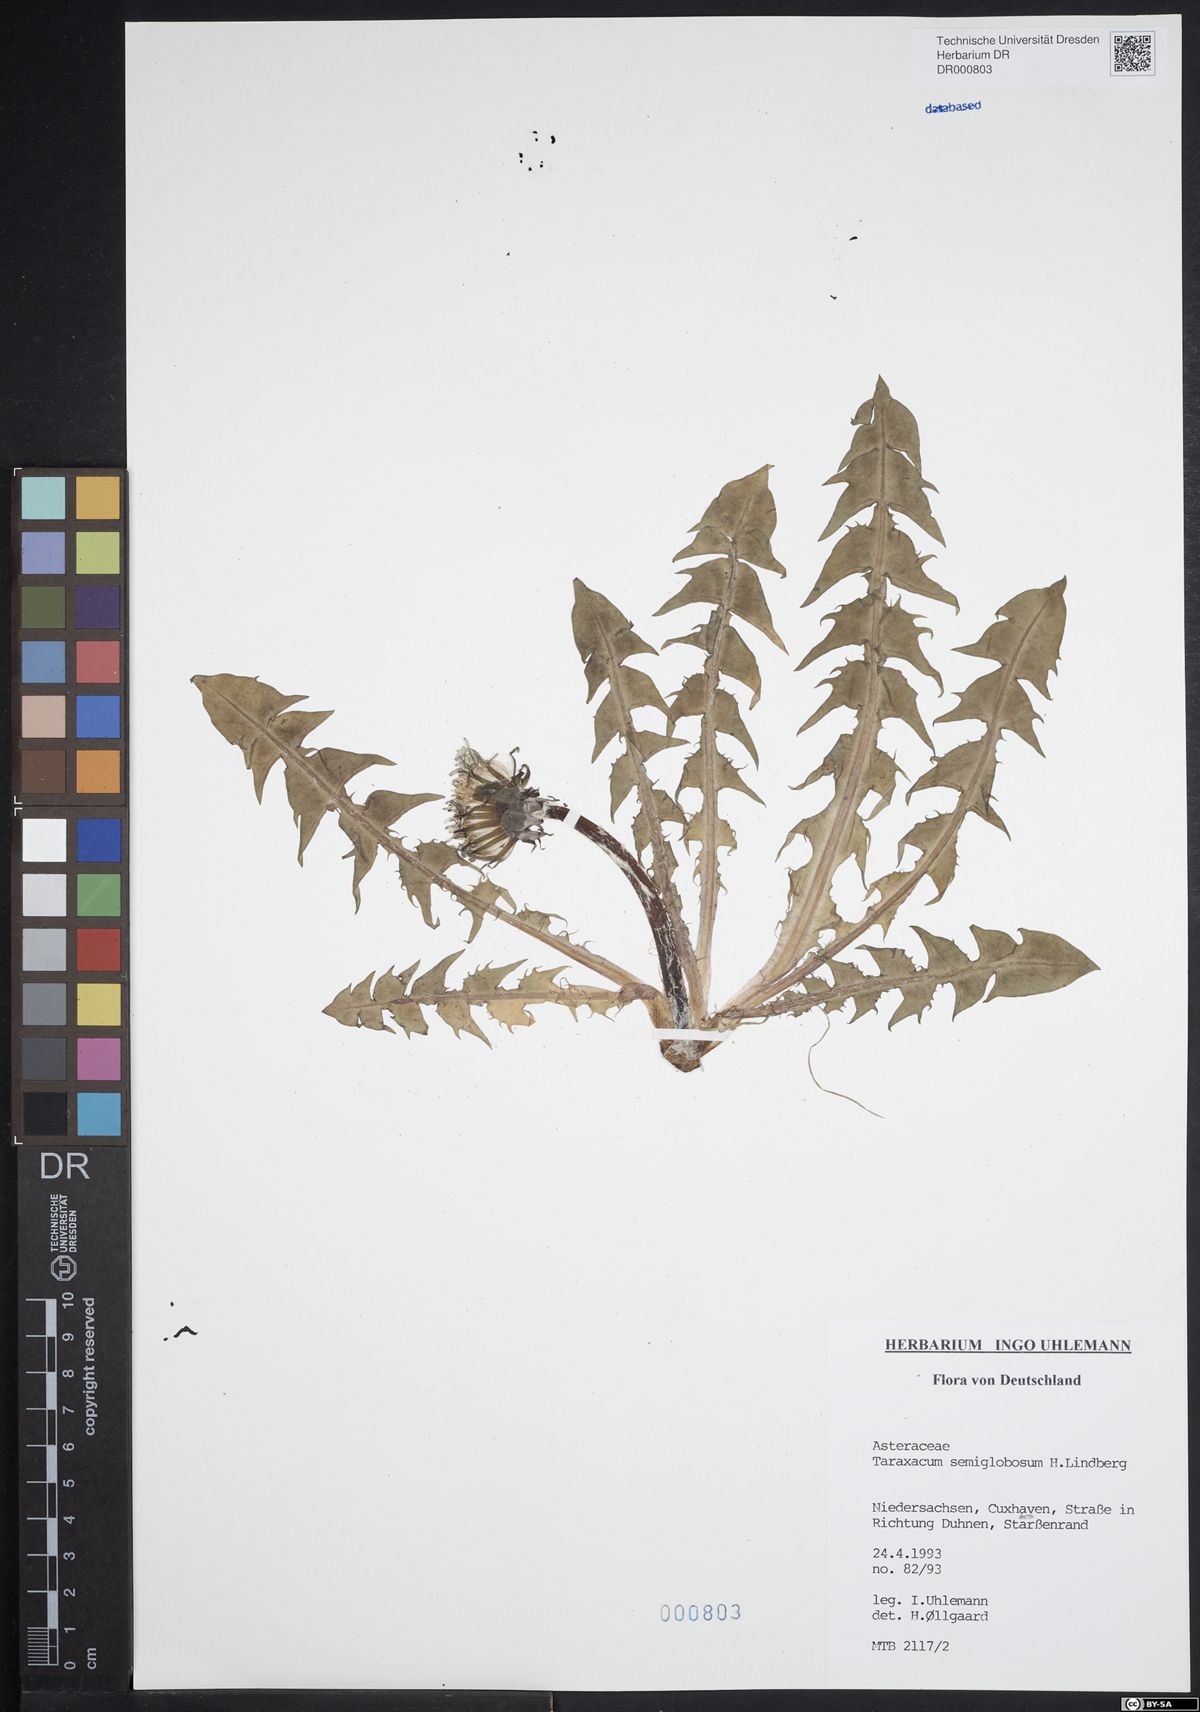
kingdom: Plantae
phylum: Tracheophyta
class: Magnoliopsida
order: Asterales
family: Asteraceae
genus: Taraxacum
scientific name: Taraxacum semiglobosum
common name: Hairy-ribbed dandelion
